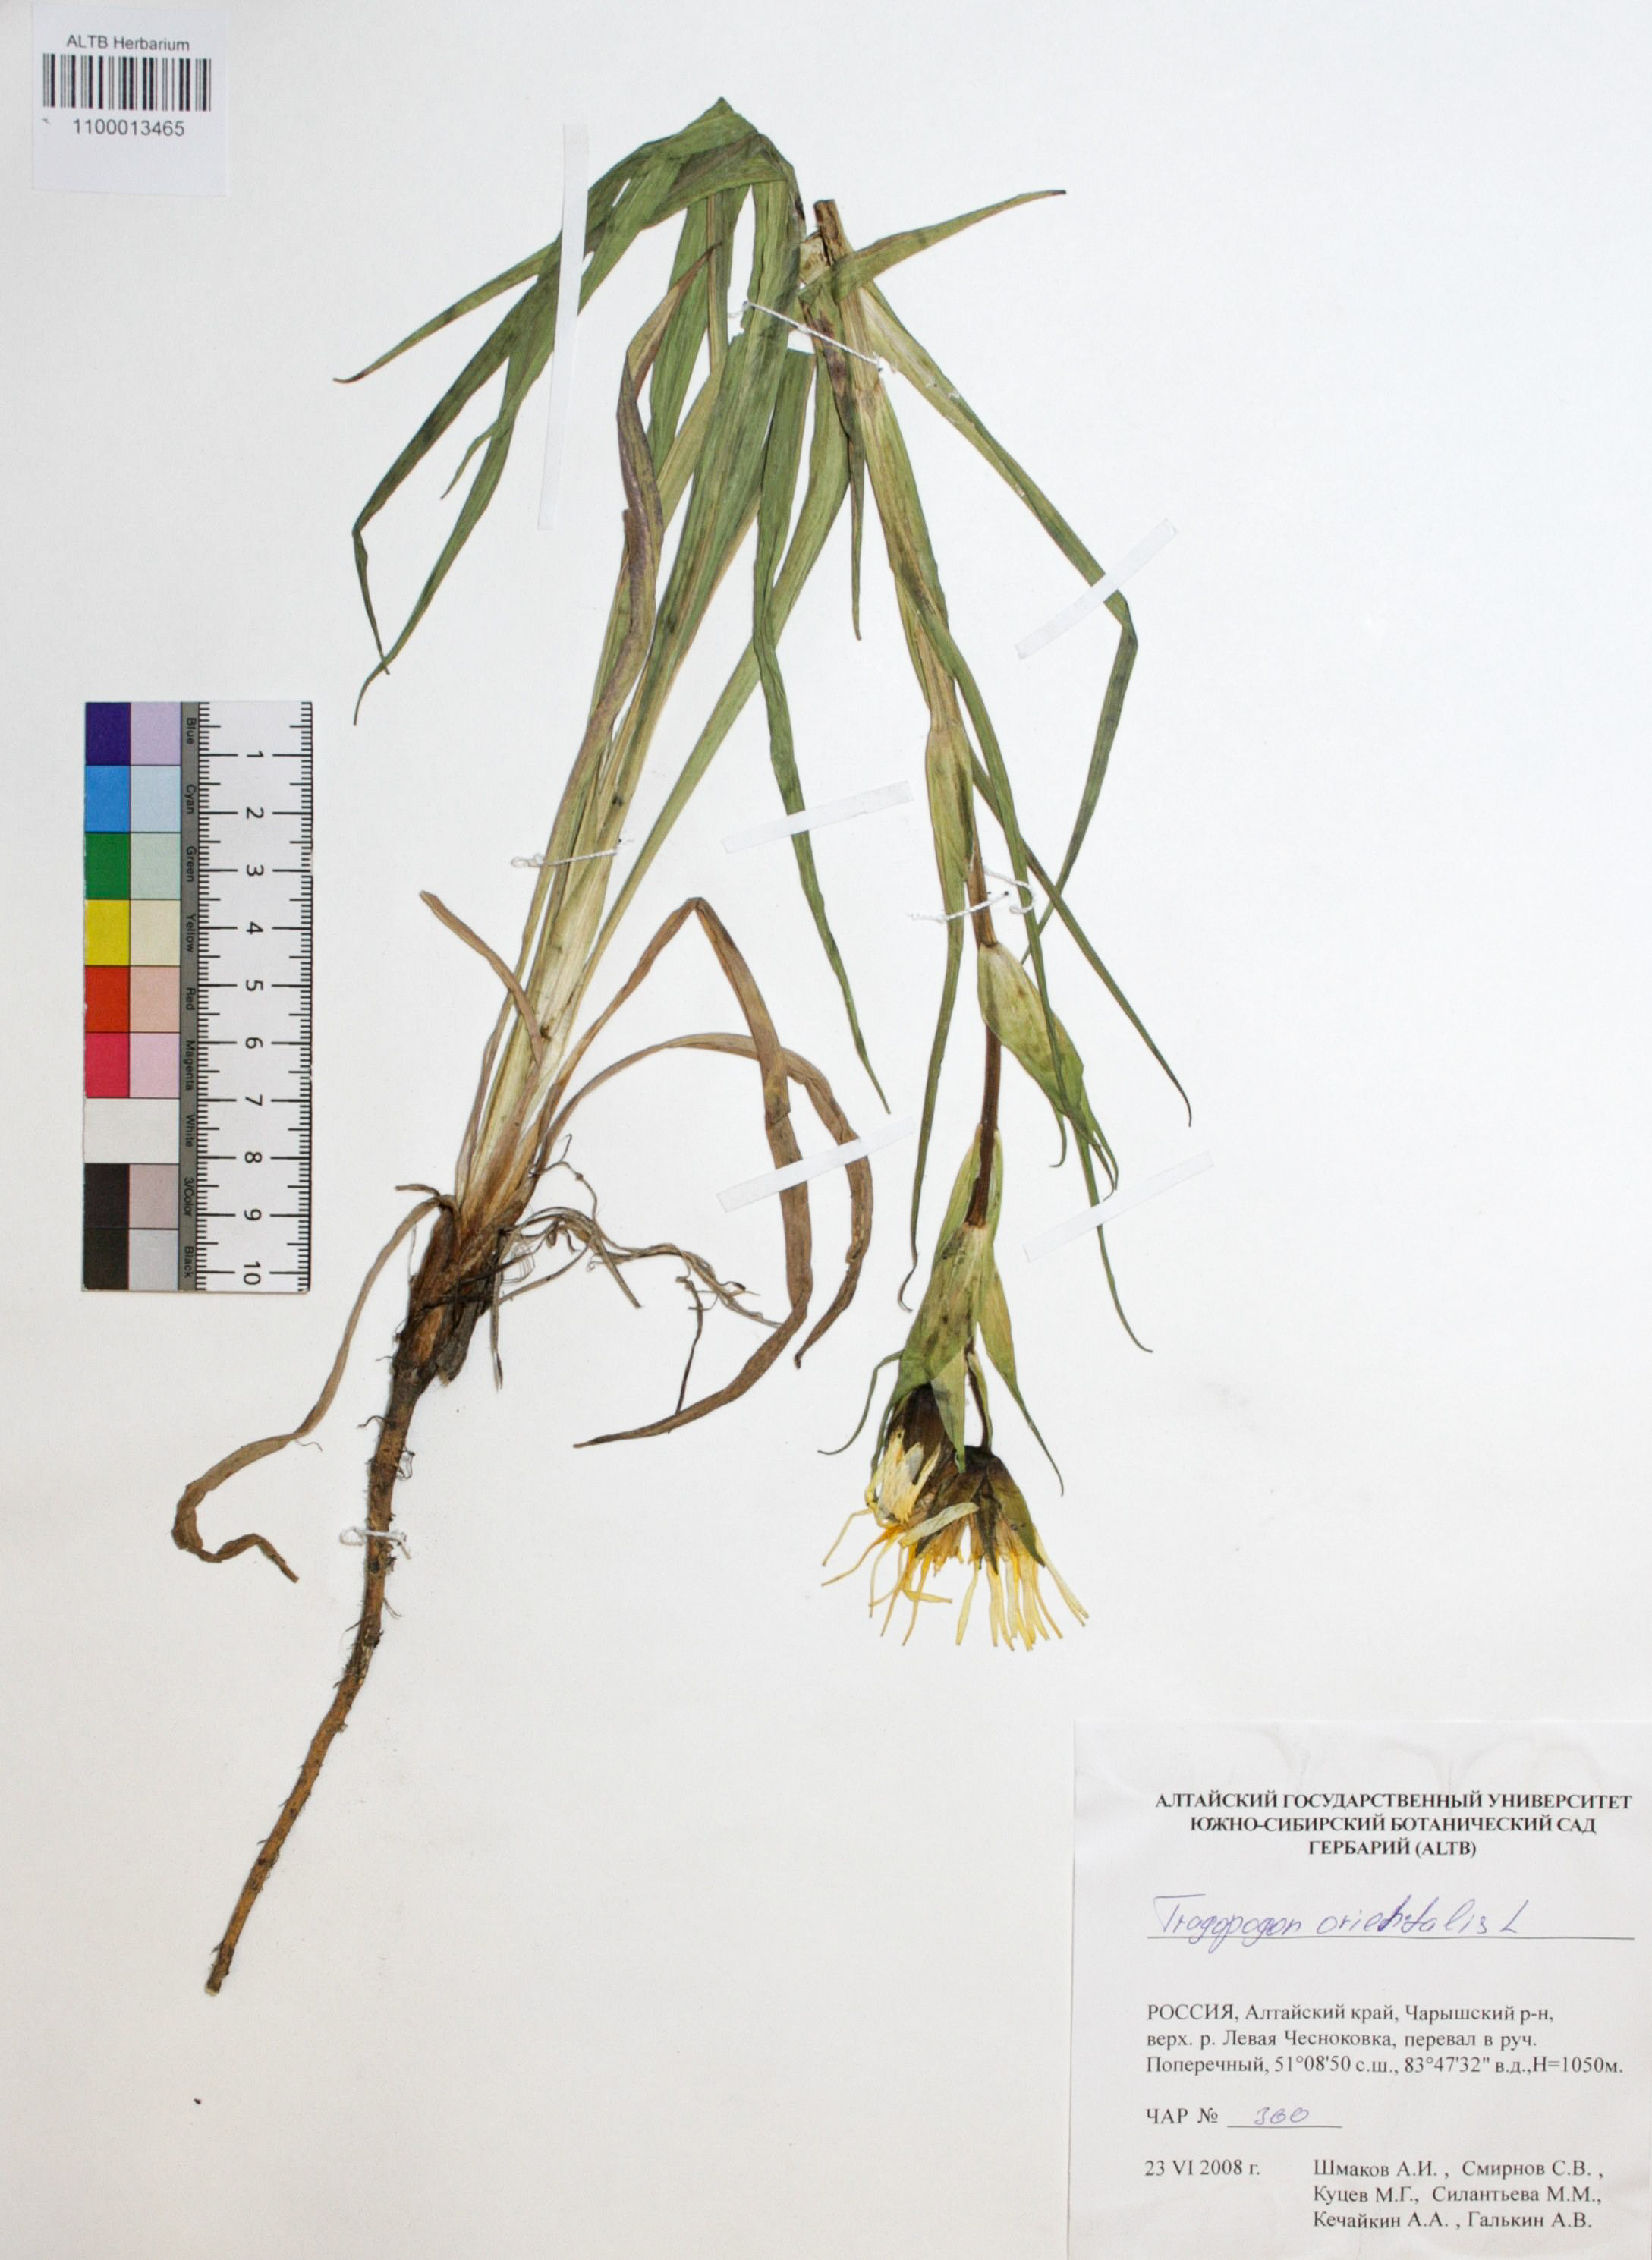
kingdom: Plantae
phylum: Tracheophyta
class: Magnoliopsida
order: Asterales
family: Asteraceae
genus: Tragopogon
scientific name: Tragopogon orientalis
